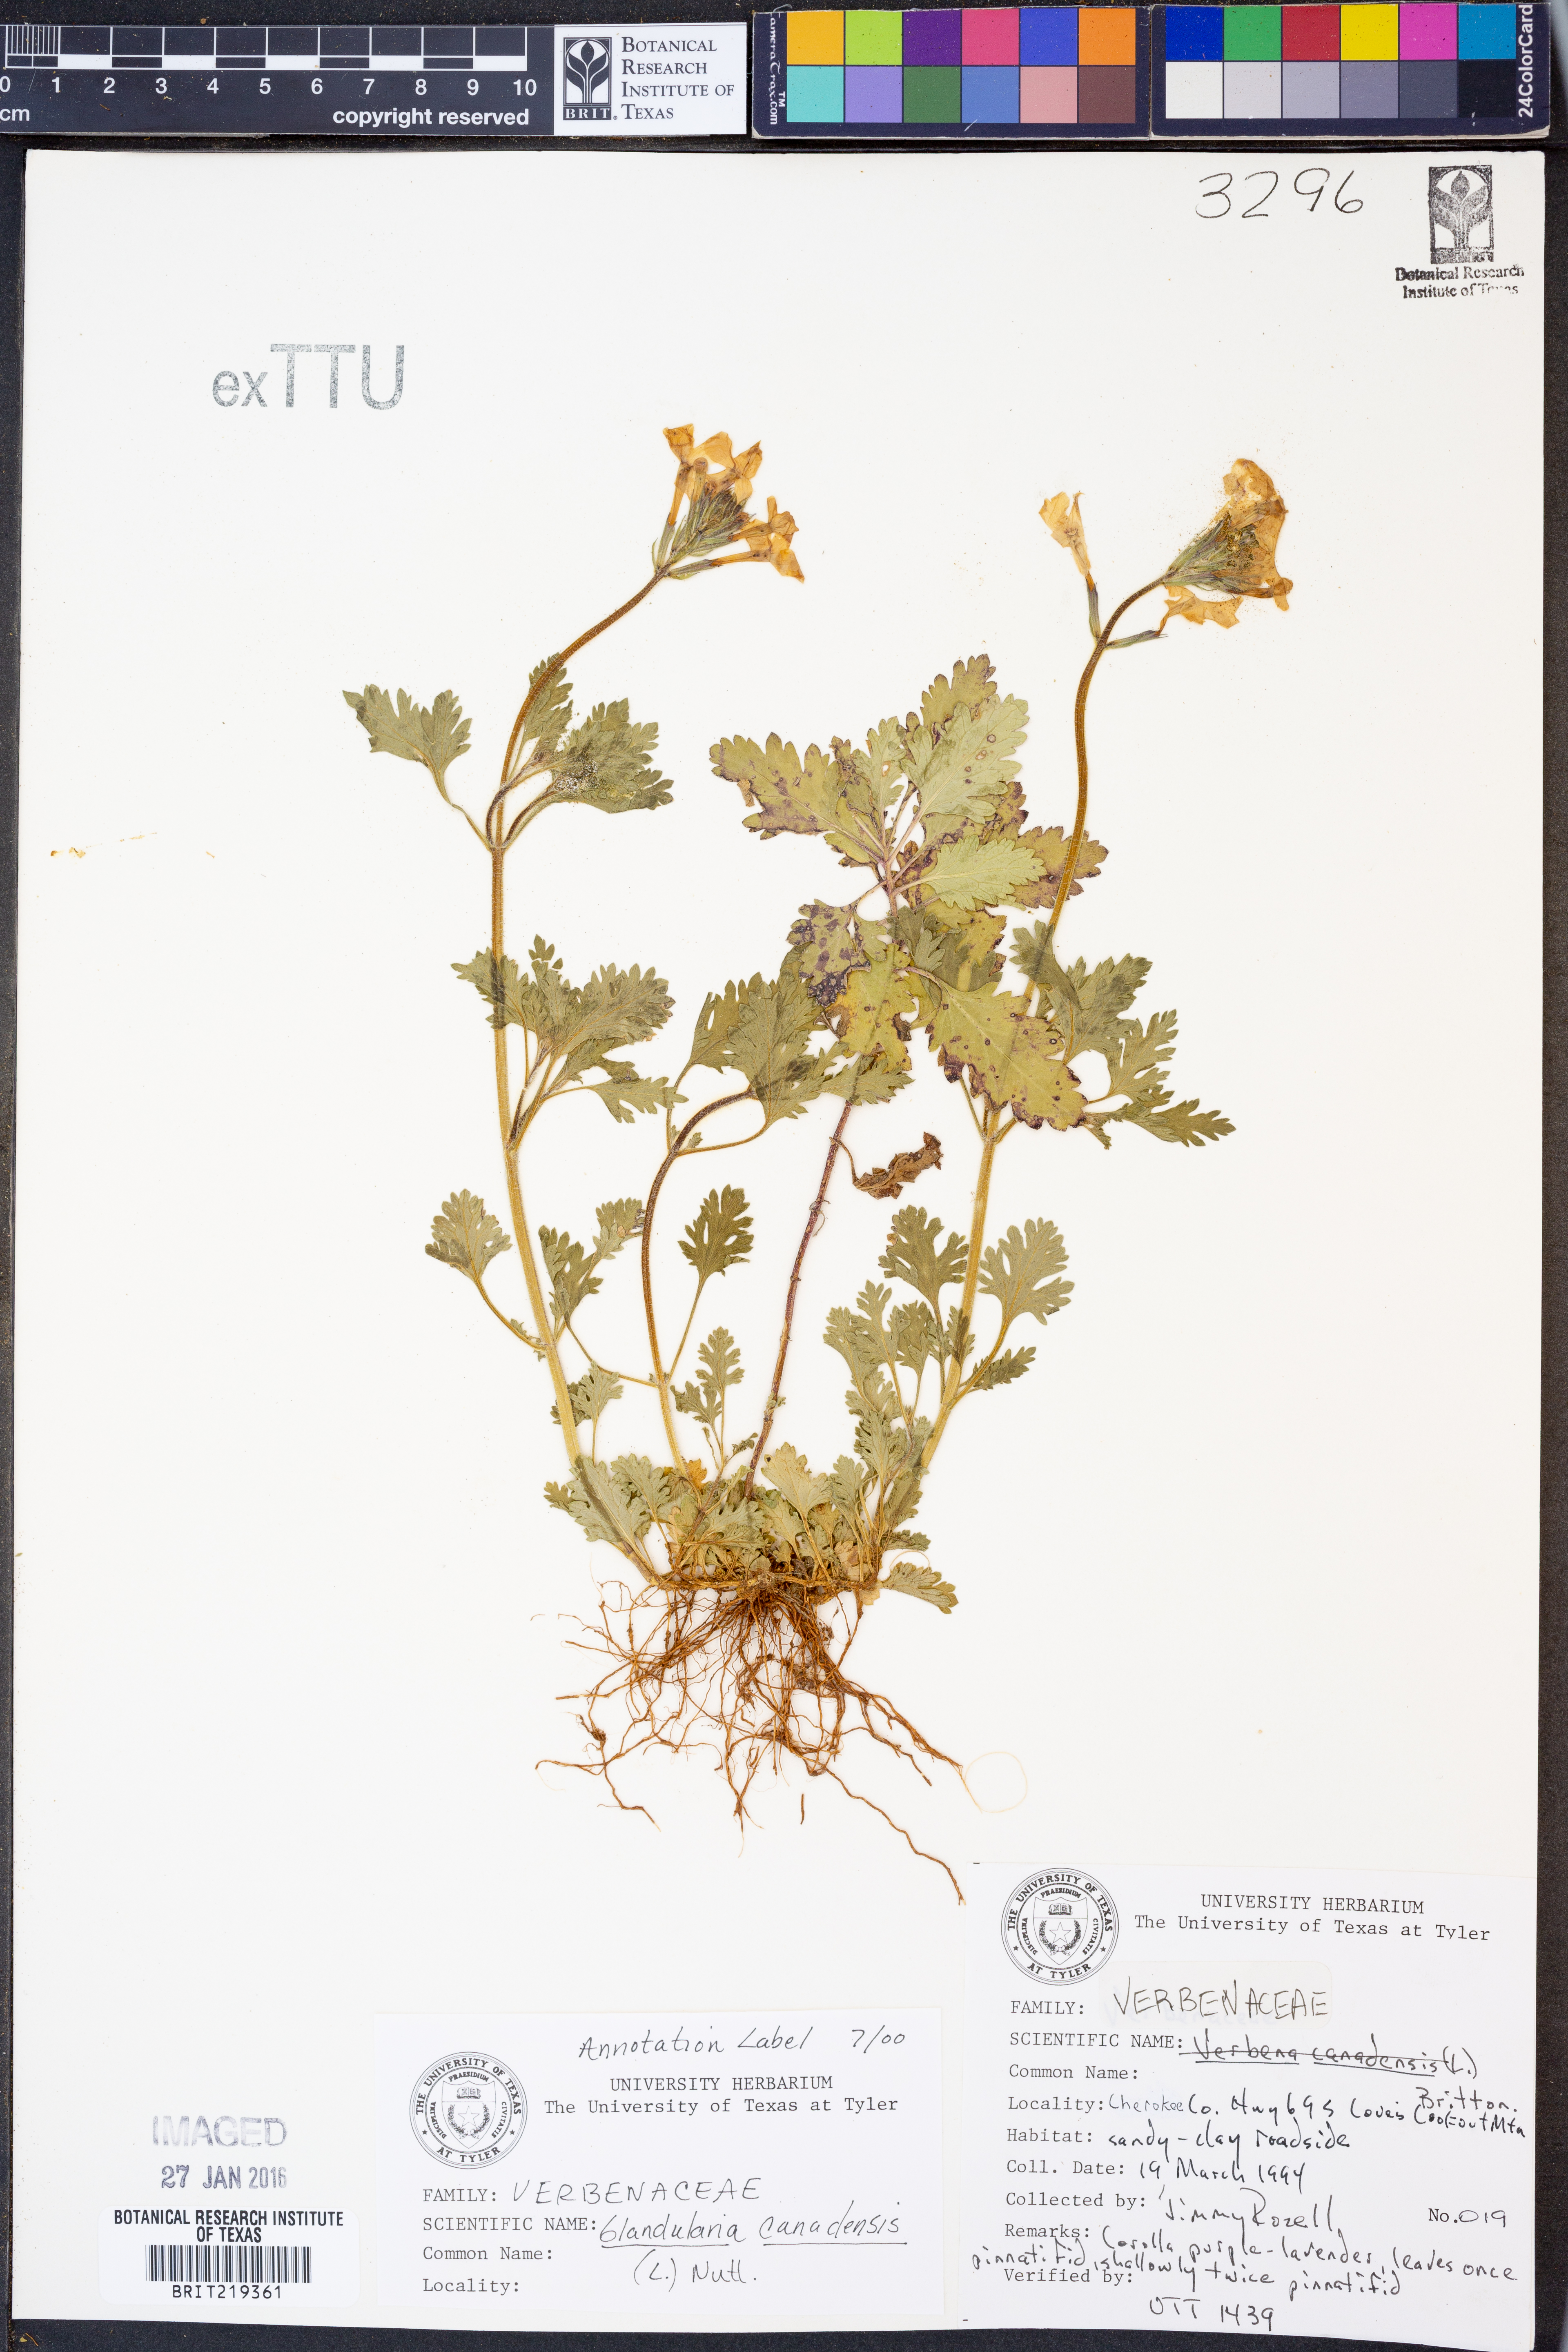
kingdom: Plantae
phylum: Tracheophyta
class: Magnoliopsida
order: Lamiales
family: Verbenaceae
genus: Verbena
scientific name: Verbena canadensis
